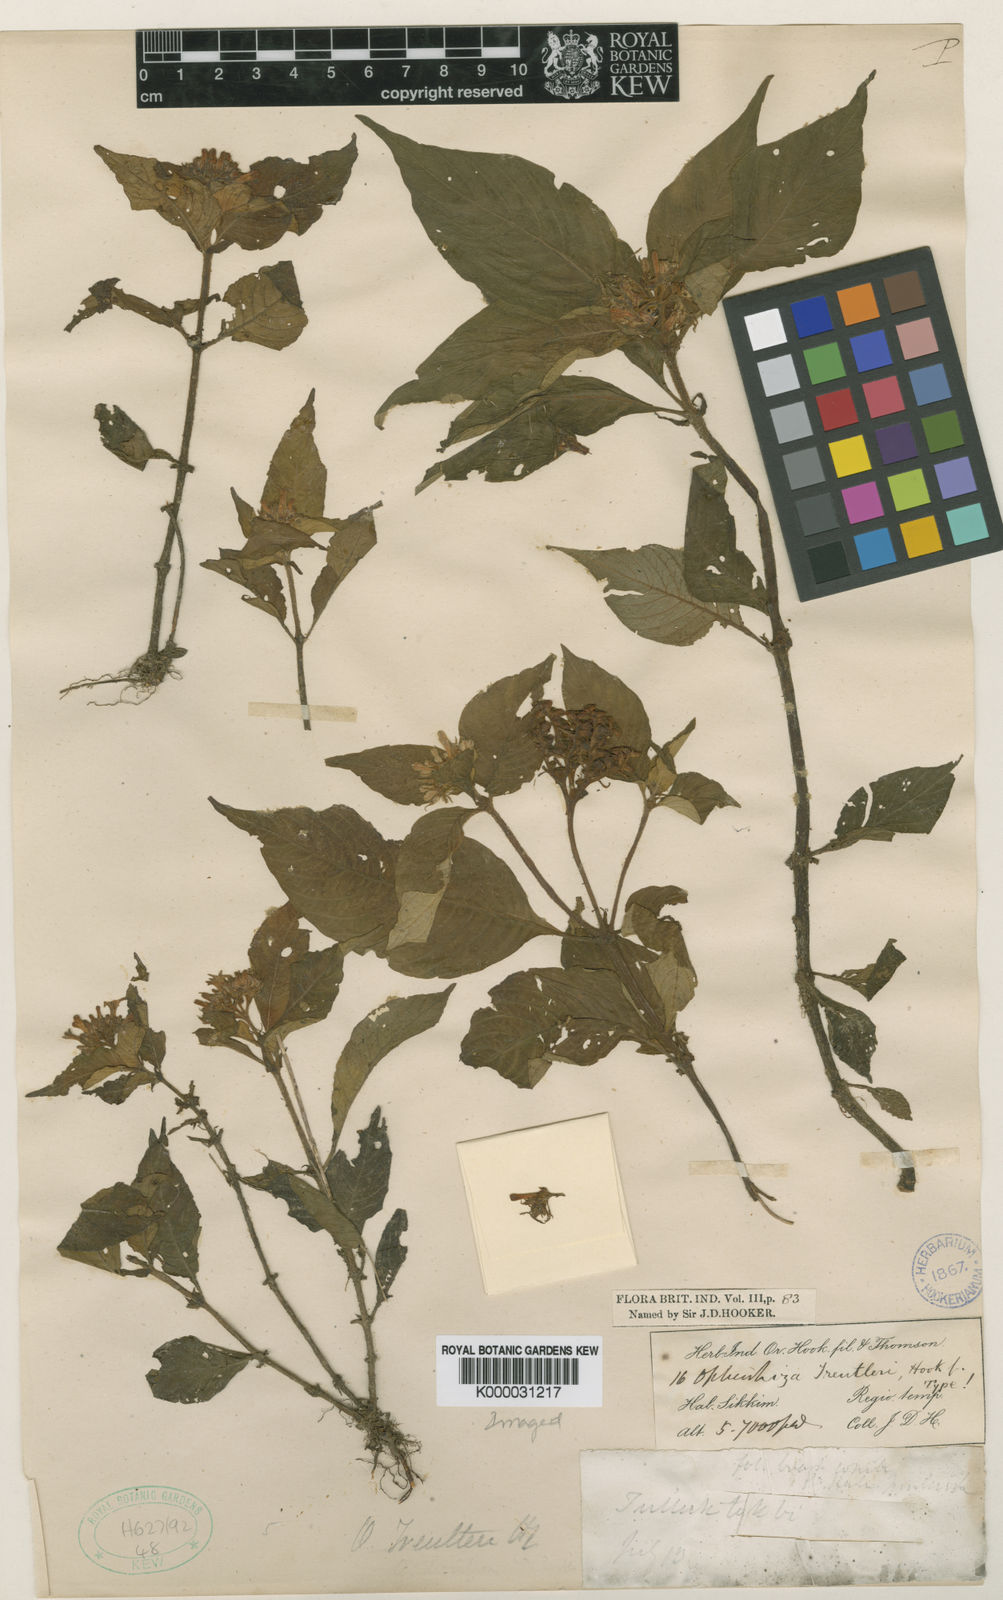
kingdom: Plantae
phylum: Tracheophyta
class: Magnoliopsida
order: Gentianales
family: Rubiaceae
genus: Ophiorrhiza
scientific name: Ophiorrhiza treutleri
